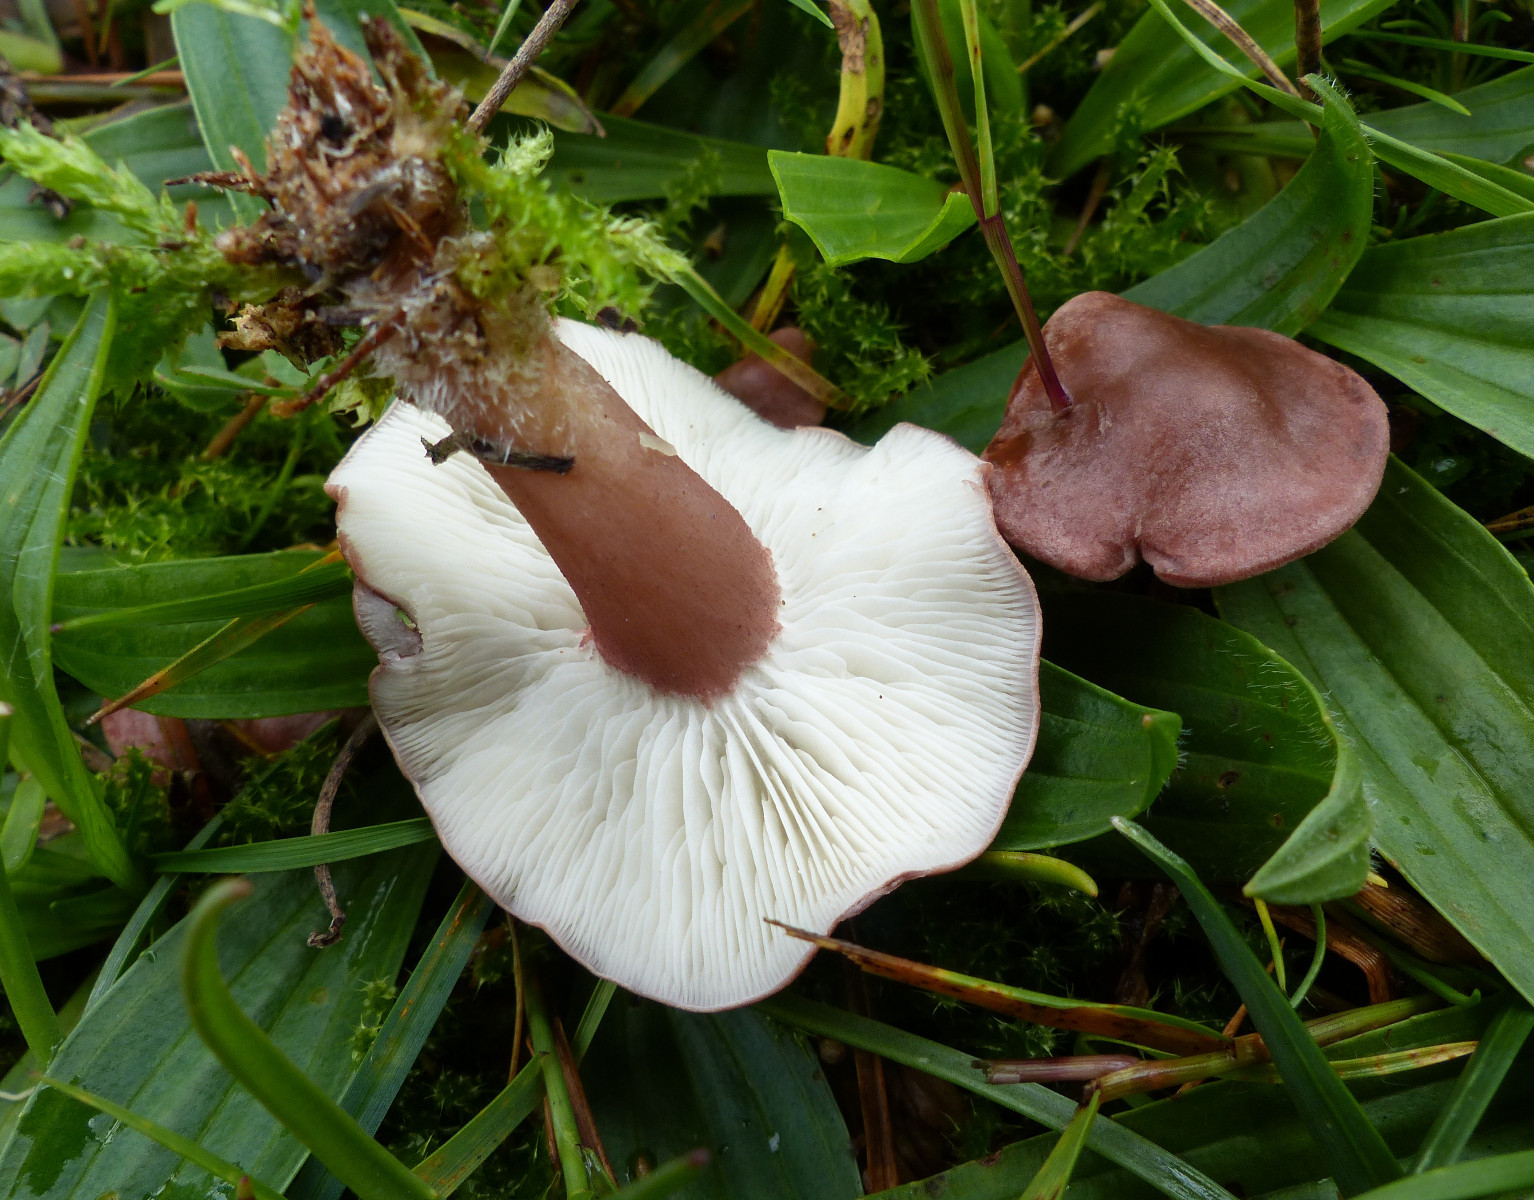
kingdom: Fungi
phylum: Basidiomycota
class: Agaricomycetes
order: Agaricales
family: Lyophyllaceae
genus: Calocybe
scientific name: Calocybe carnea
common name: rosa fagerhat
